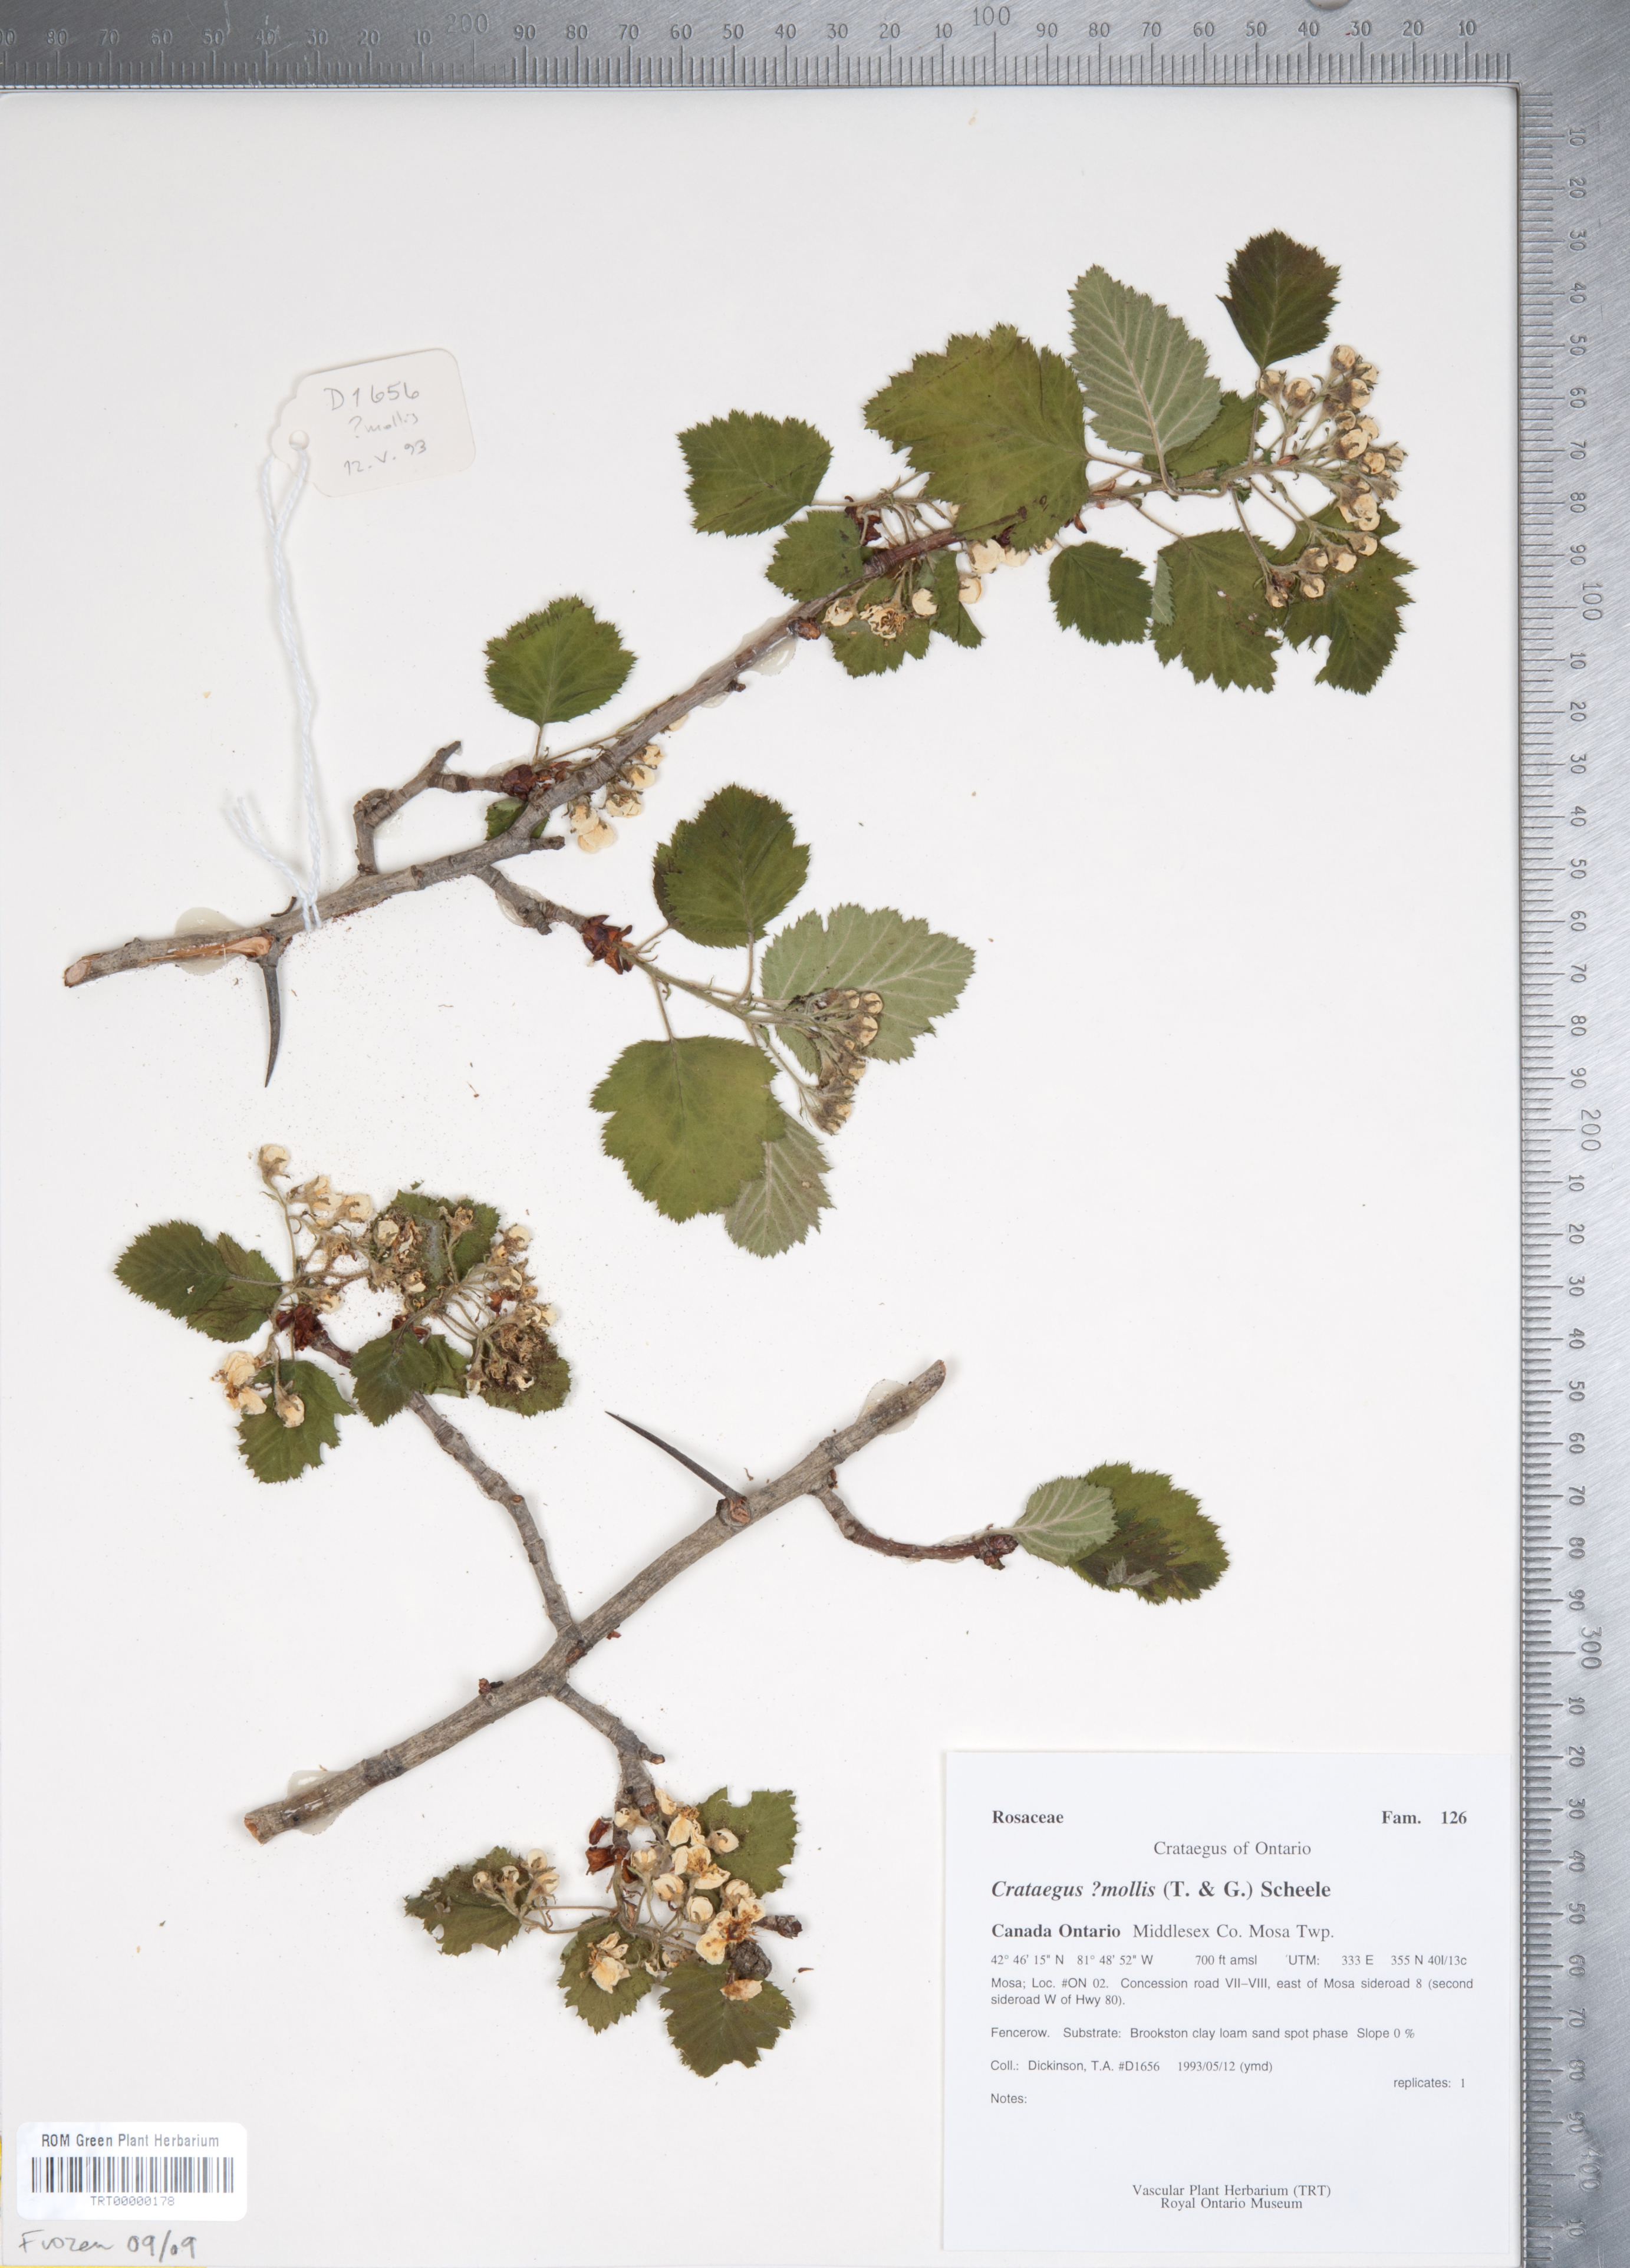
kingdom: Plantae
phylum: Tracheophyta
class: Magnoliopsida
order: Rosales
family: Rosaceae
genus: Crataegus
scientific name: Crataegus mollis
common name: Downy hawthorn
